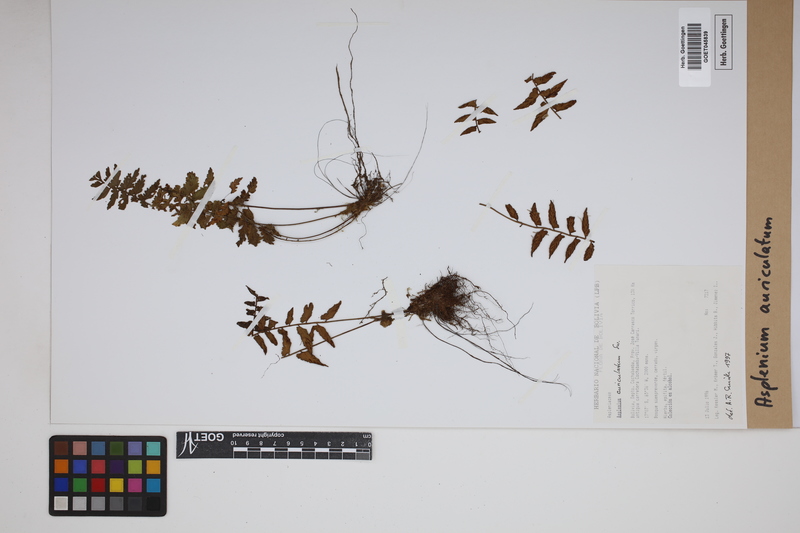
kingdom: Plantae
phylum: Tracheophyta
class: Polypodiopsida
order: Polypodiales
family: Aspleniaceae
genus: Asplenium
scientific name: Asplenium auriculatum
